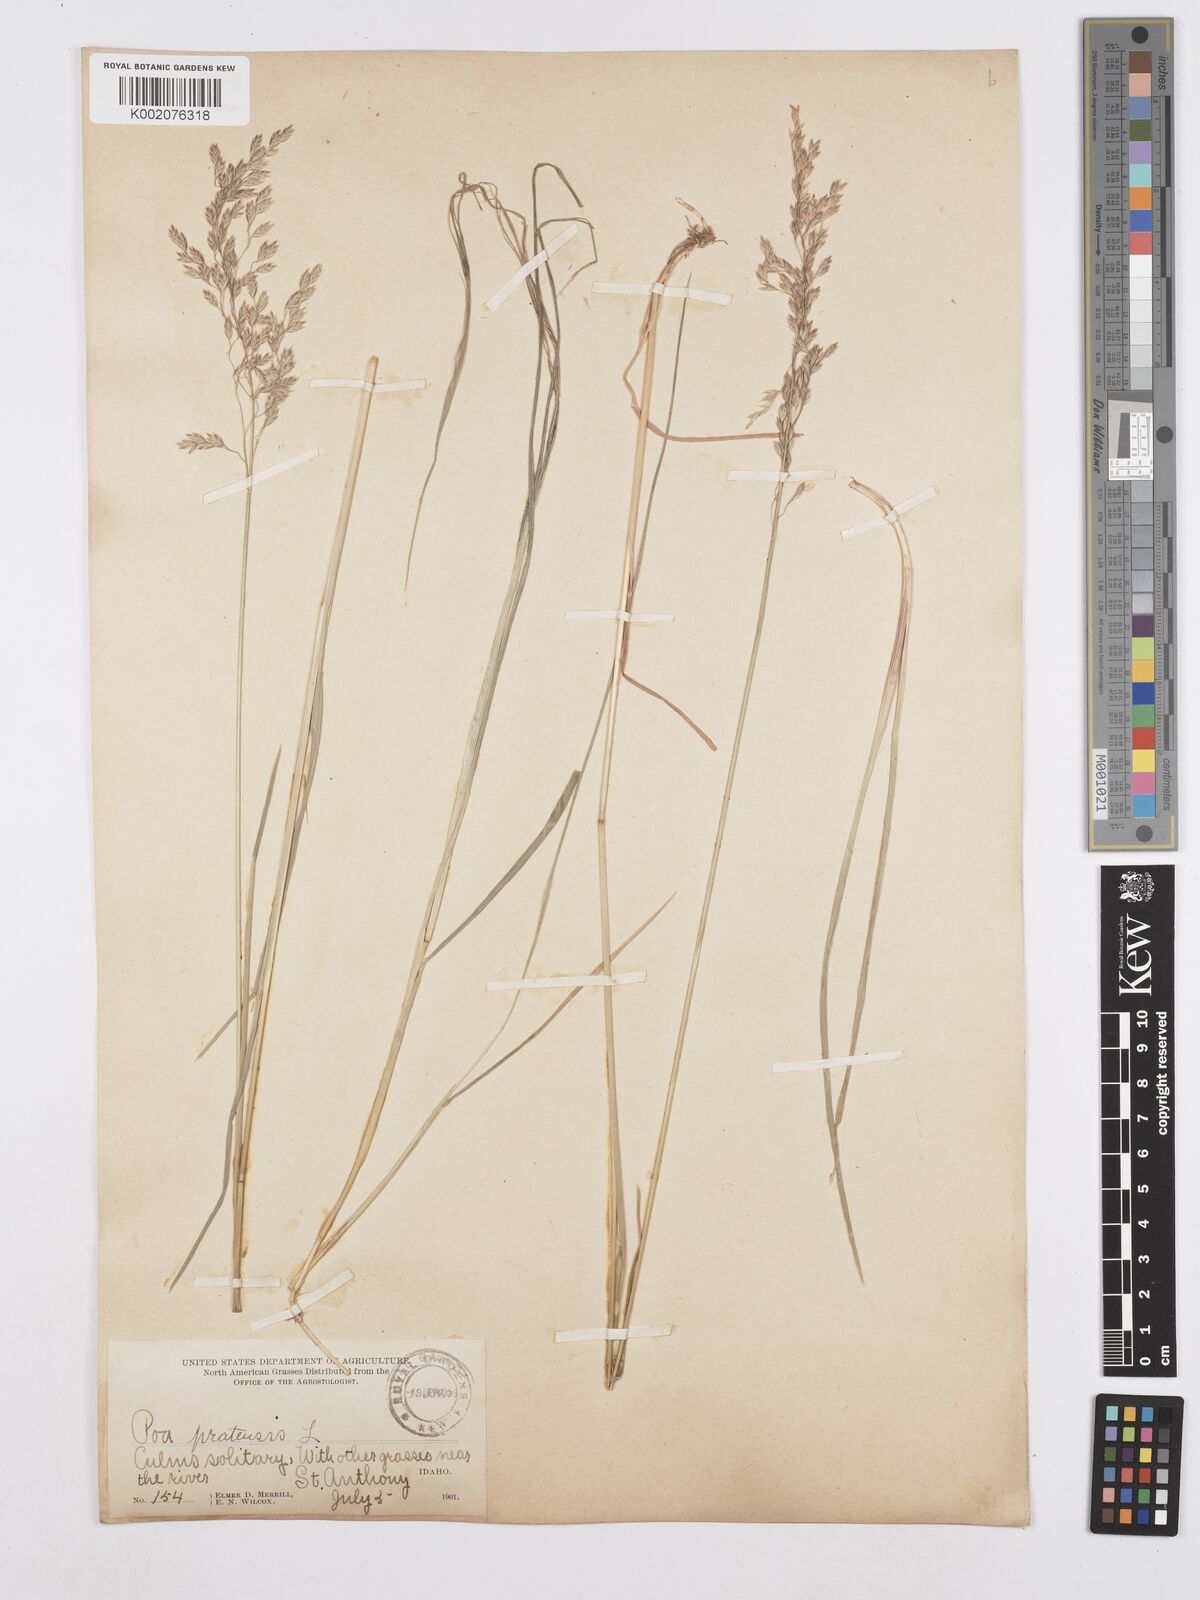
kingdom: Plantae
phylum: Tracheophyta
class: Liliopsida
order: Poales
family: Poaceae
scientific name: Poaceae
